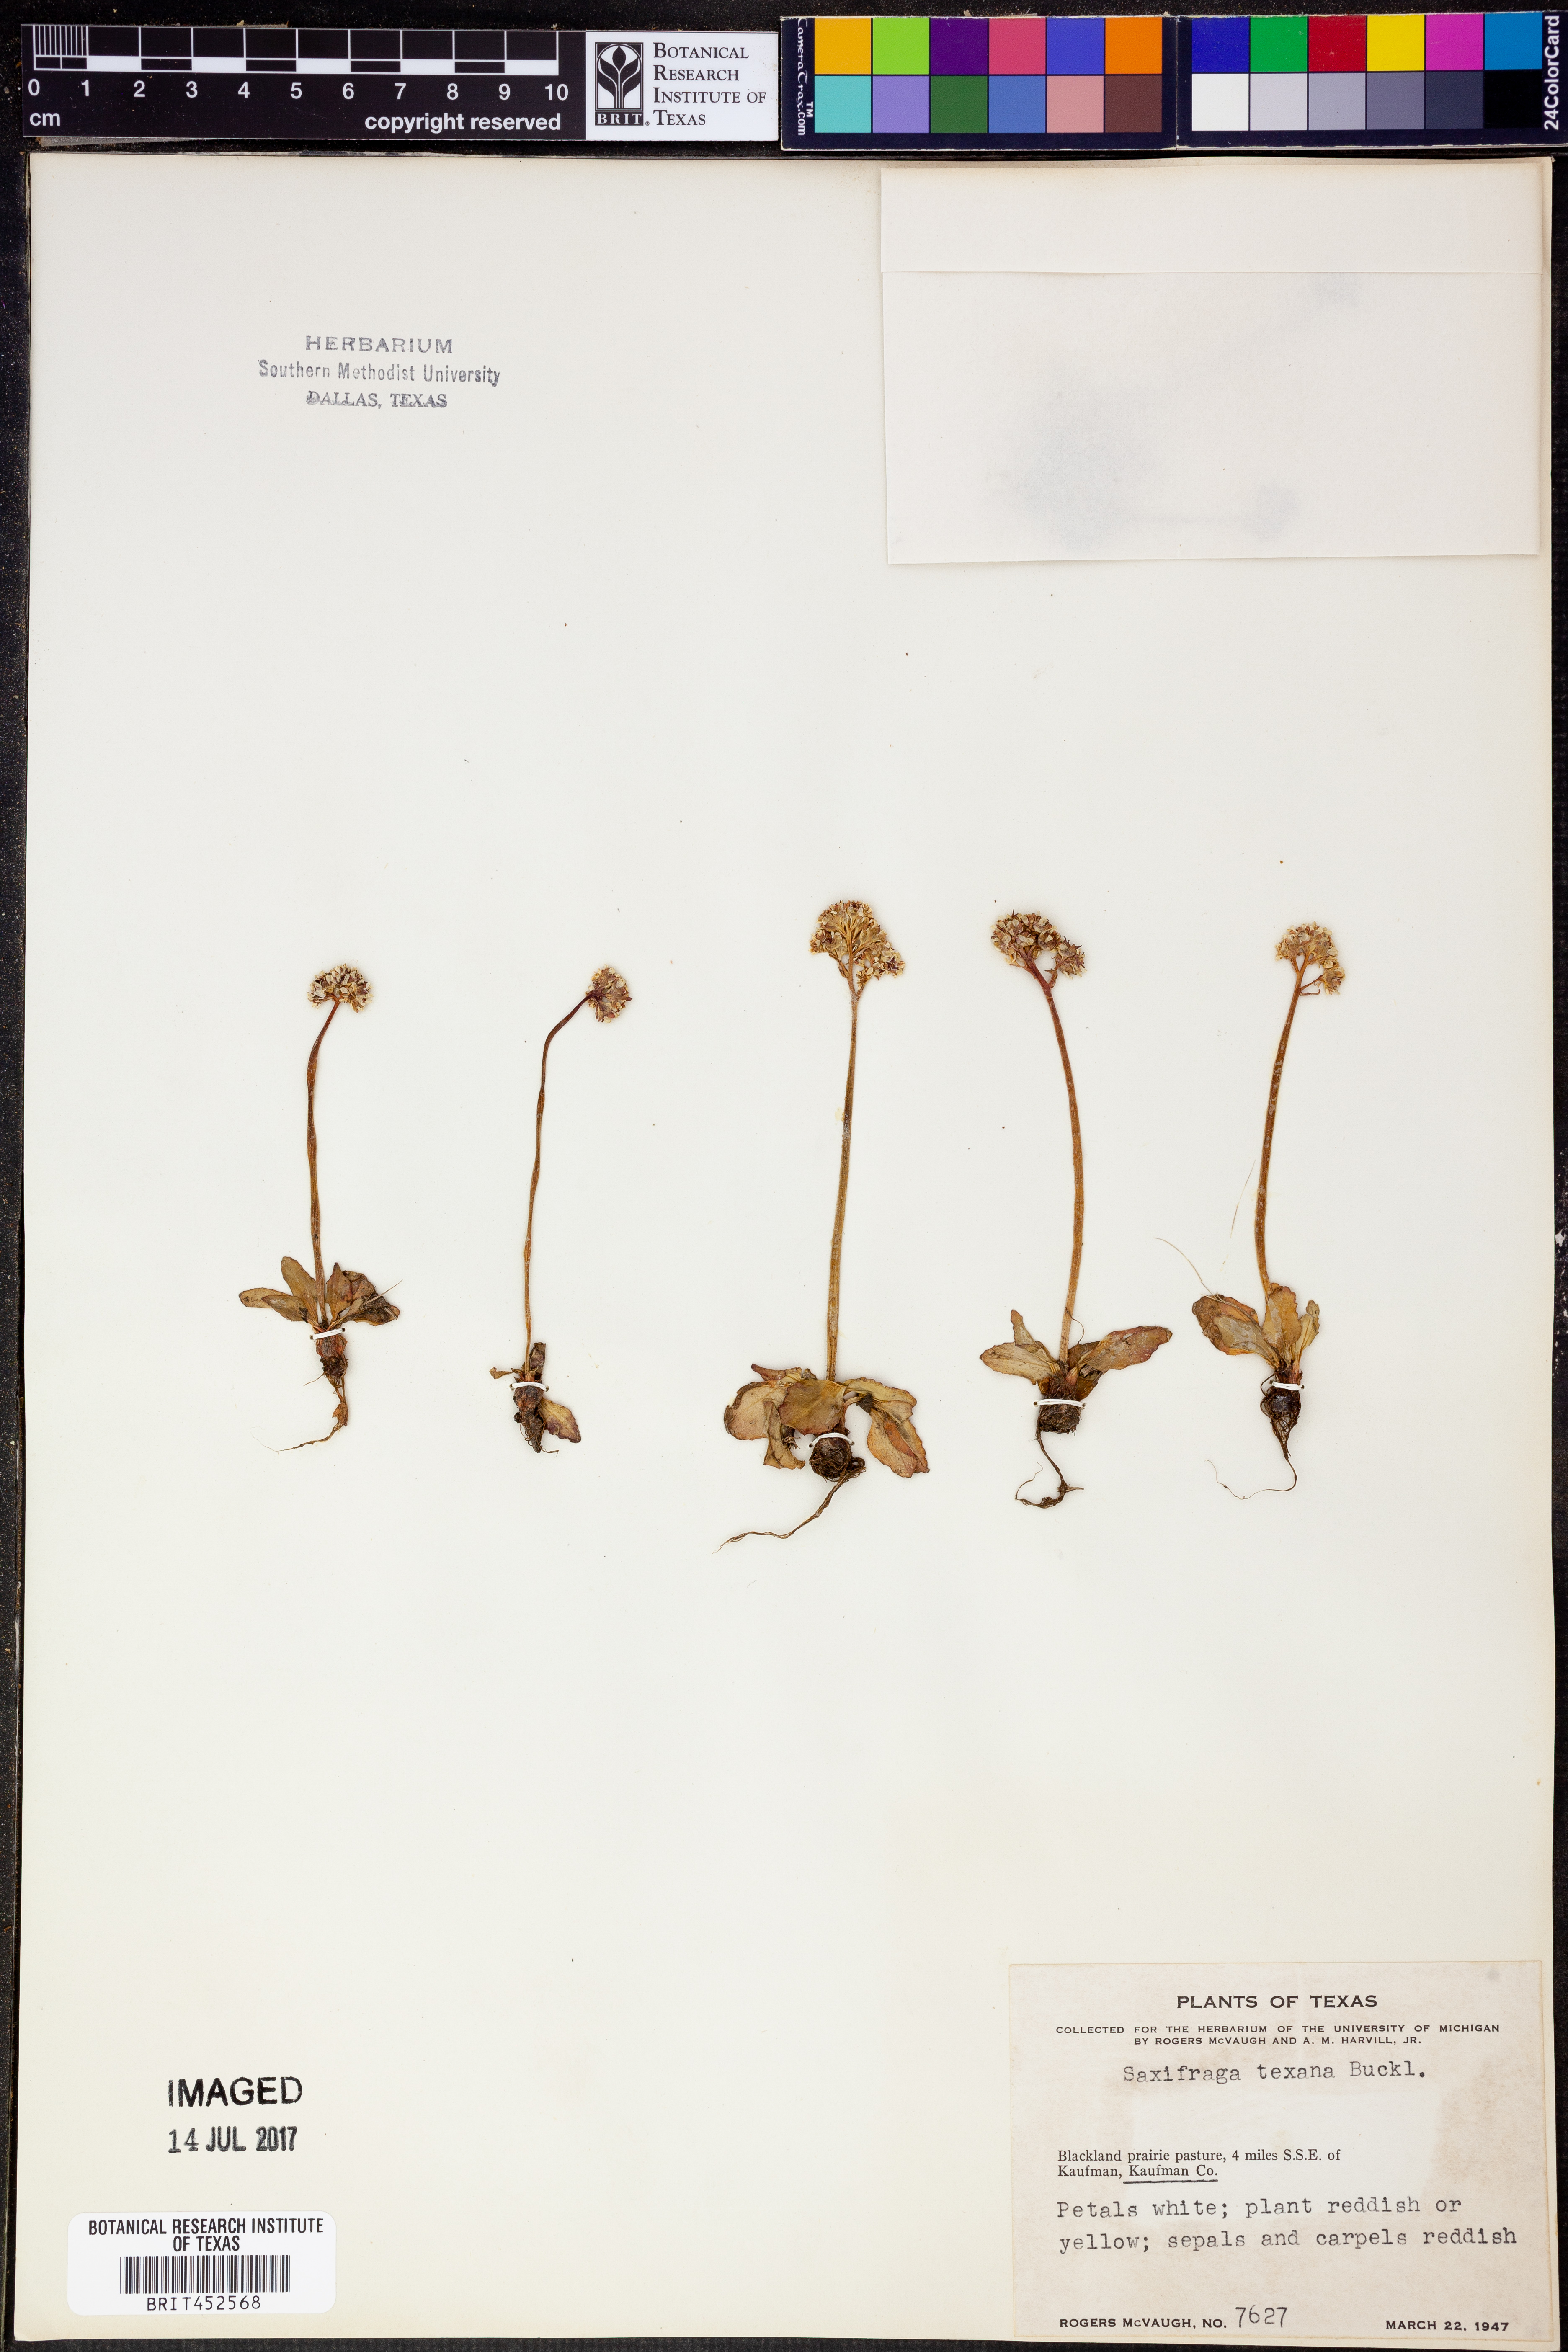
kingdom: Plantae
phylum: Tracheophyta
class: Magnoliopsida
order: Saxifragales
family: Saxifragaceae
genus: Micranthes
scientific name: Micranthes texana
